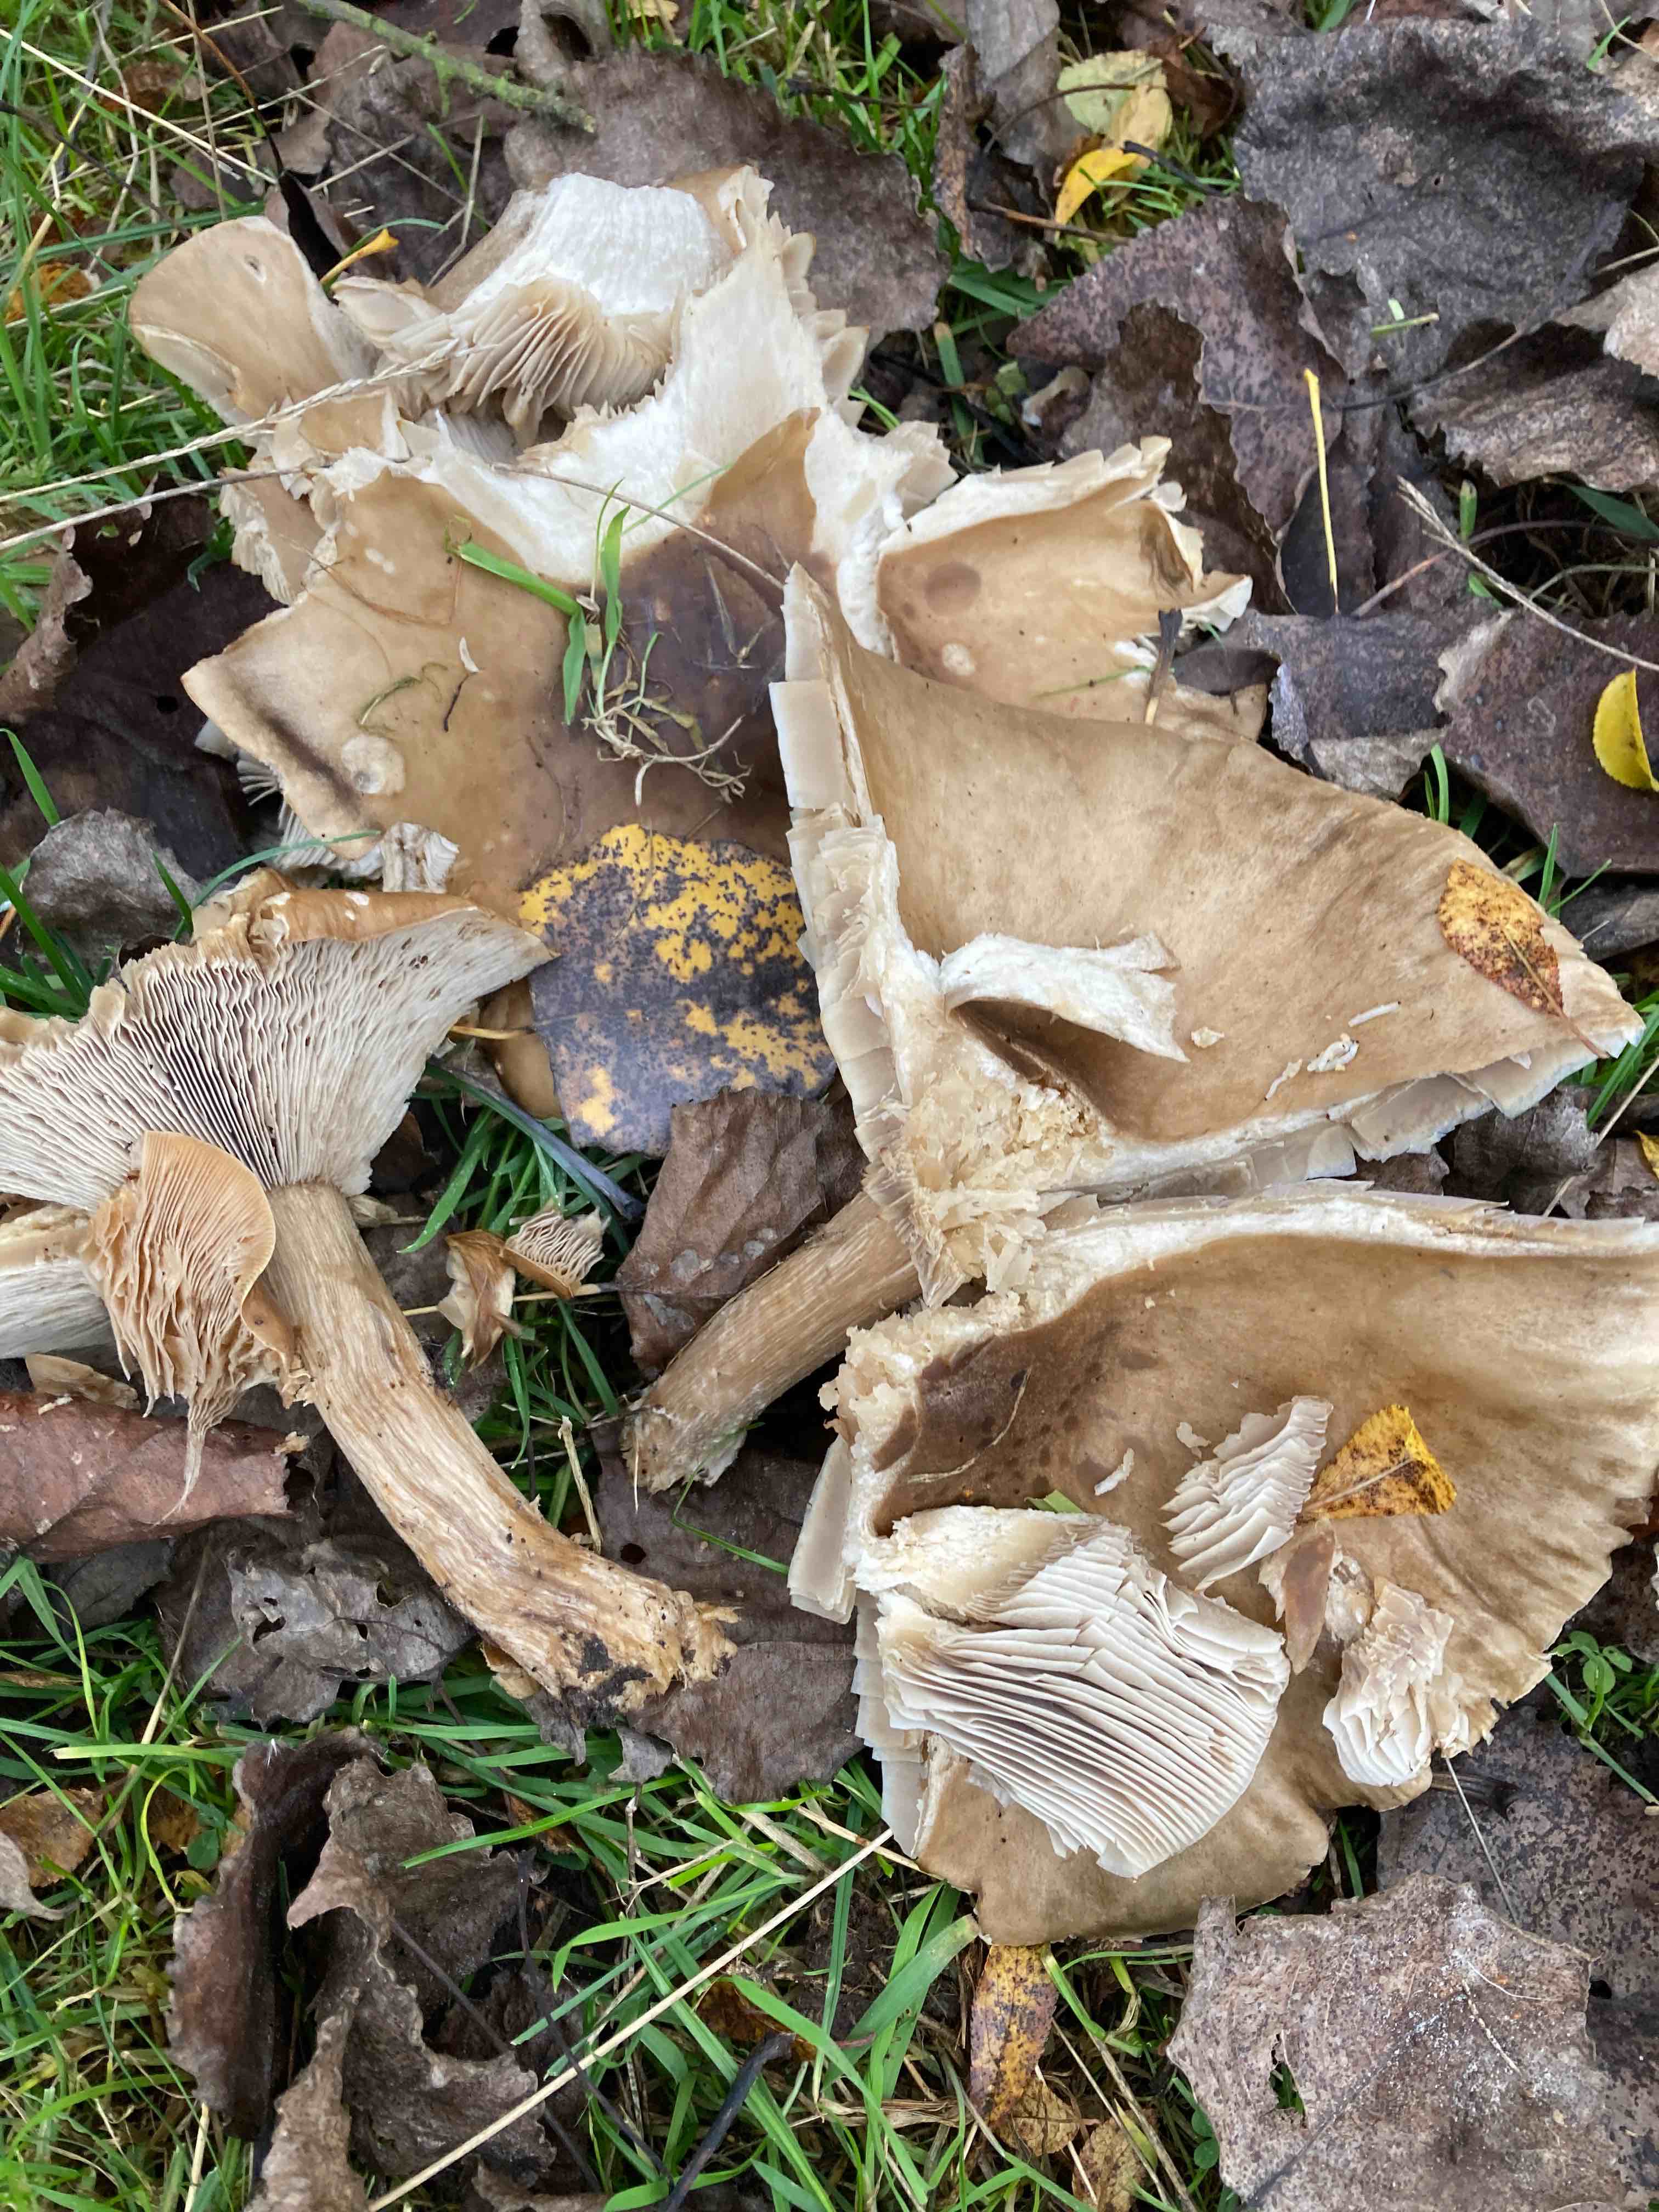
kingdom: Fungi
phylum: Basidiomycota
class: Agaricomycetes
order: Agaricales
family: Tricholomataceae
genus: Melanoleuca
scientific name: Melanoleuca grammopodia
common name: stribestokket munkehat
